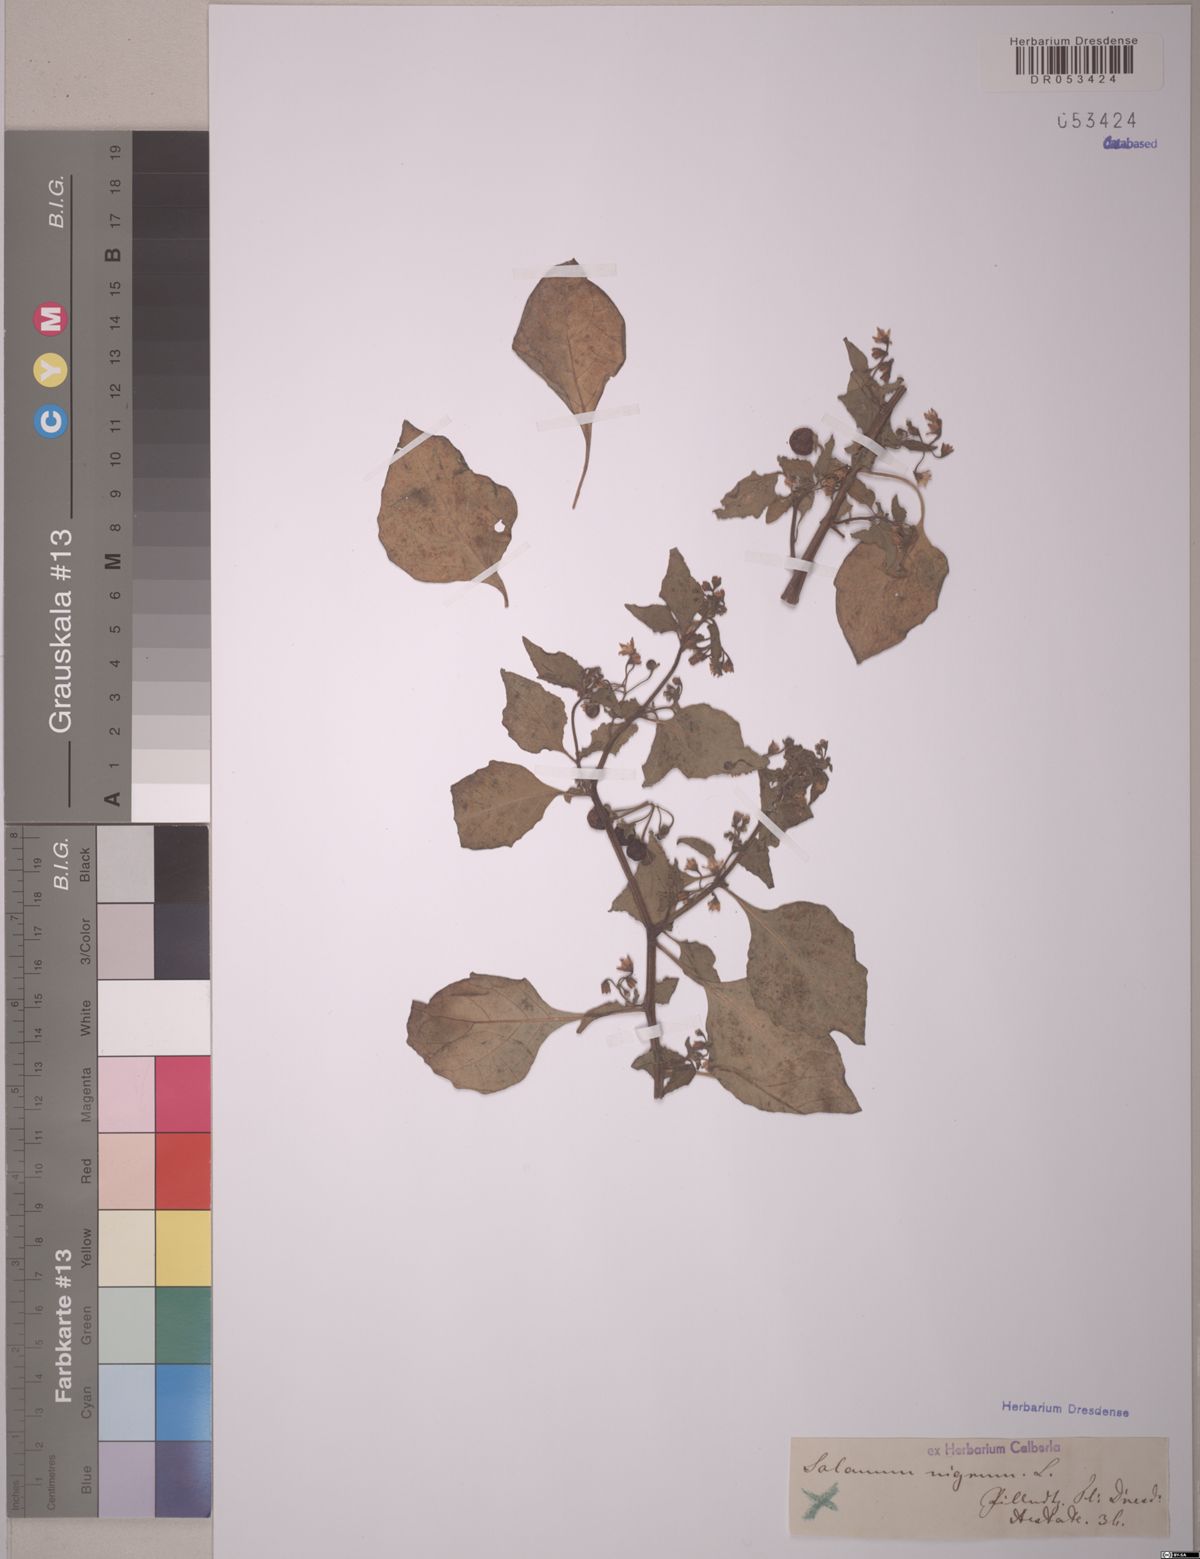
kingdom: Plantae
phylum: Tracheophyta
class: Magnoliopsida
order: Solanales
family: Solanaceae
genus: Solanum
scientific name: Solanum nigrum
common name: Black nightshade
